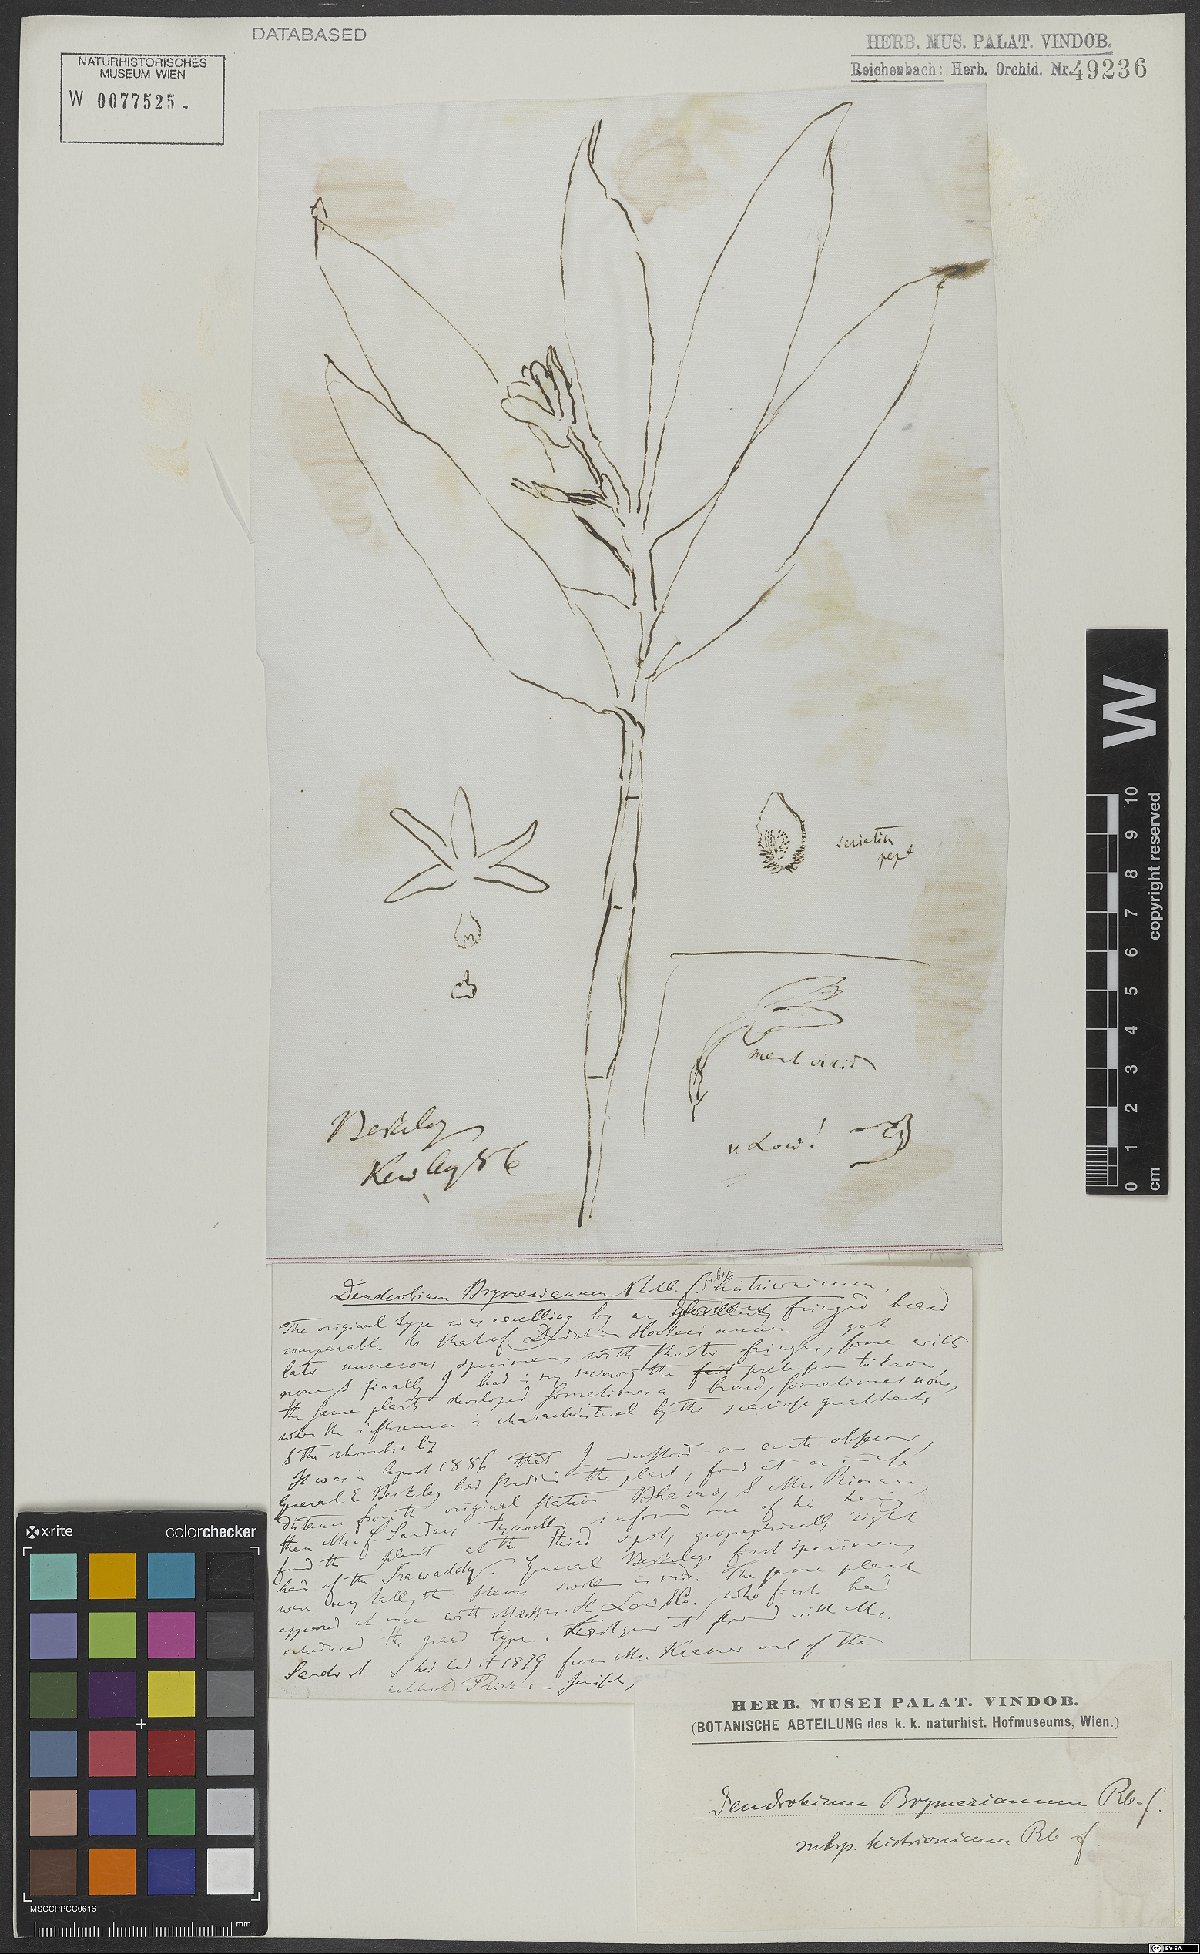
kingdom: Plantae
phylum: Tracheophyta
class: Liliopsida
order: Asparagales
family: Orchidaceae
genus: Dendrobium
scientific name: Dendrobium histrionicum
